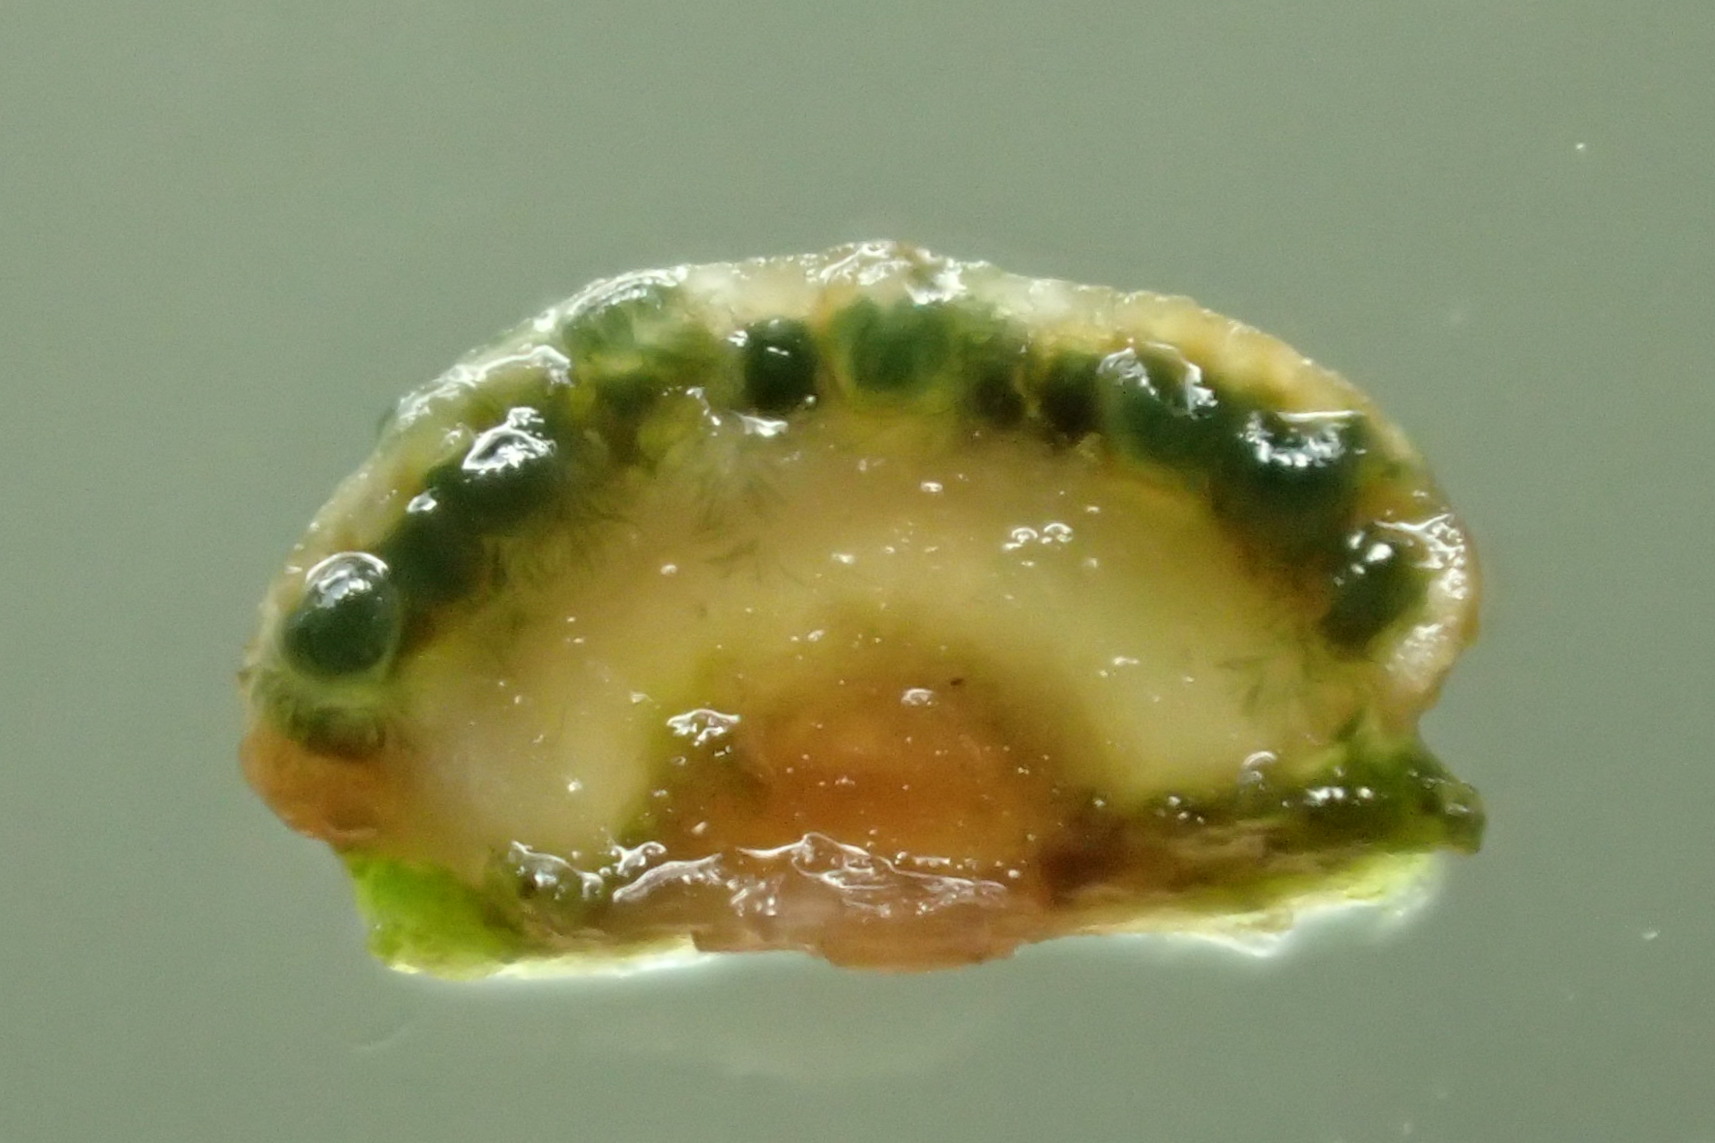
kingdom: Fungi
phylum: Ascomycota
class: Sordariomycetes
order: Hypocreales
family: Hypocreaceae
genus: Trichoderma
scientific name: Trichoderma strictipile
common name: grønprikket kødkerne
